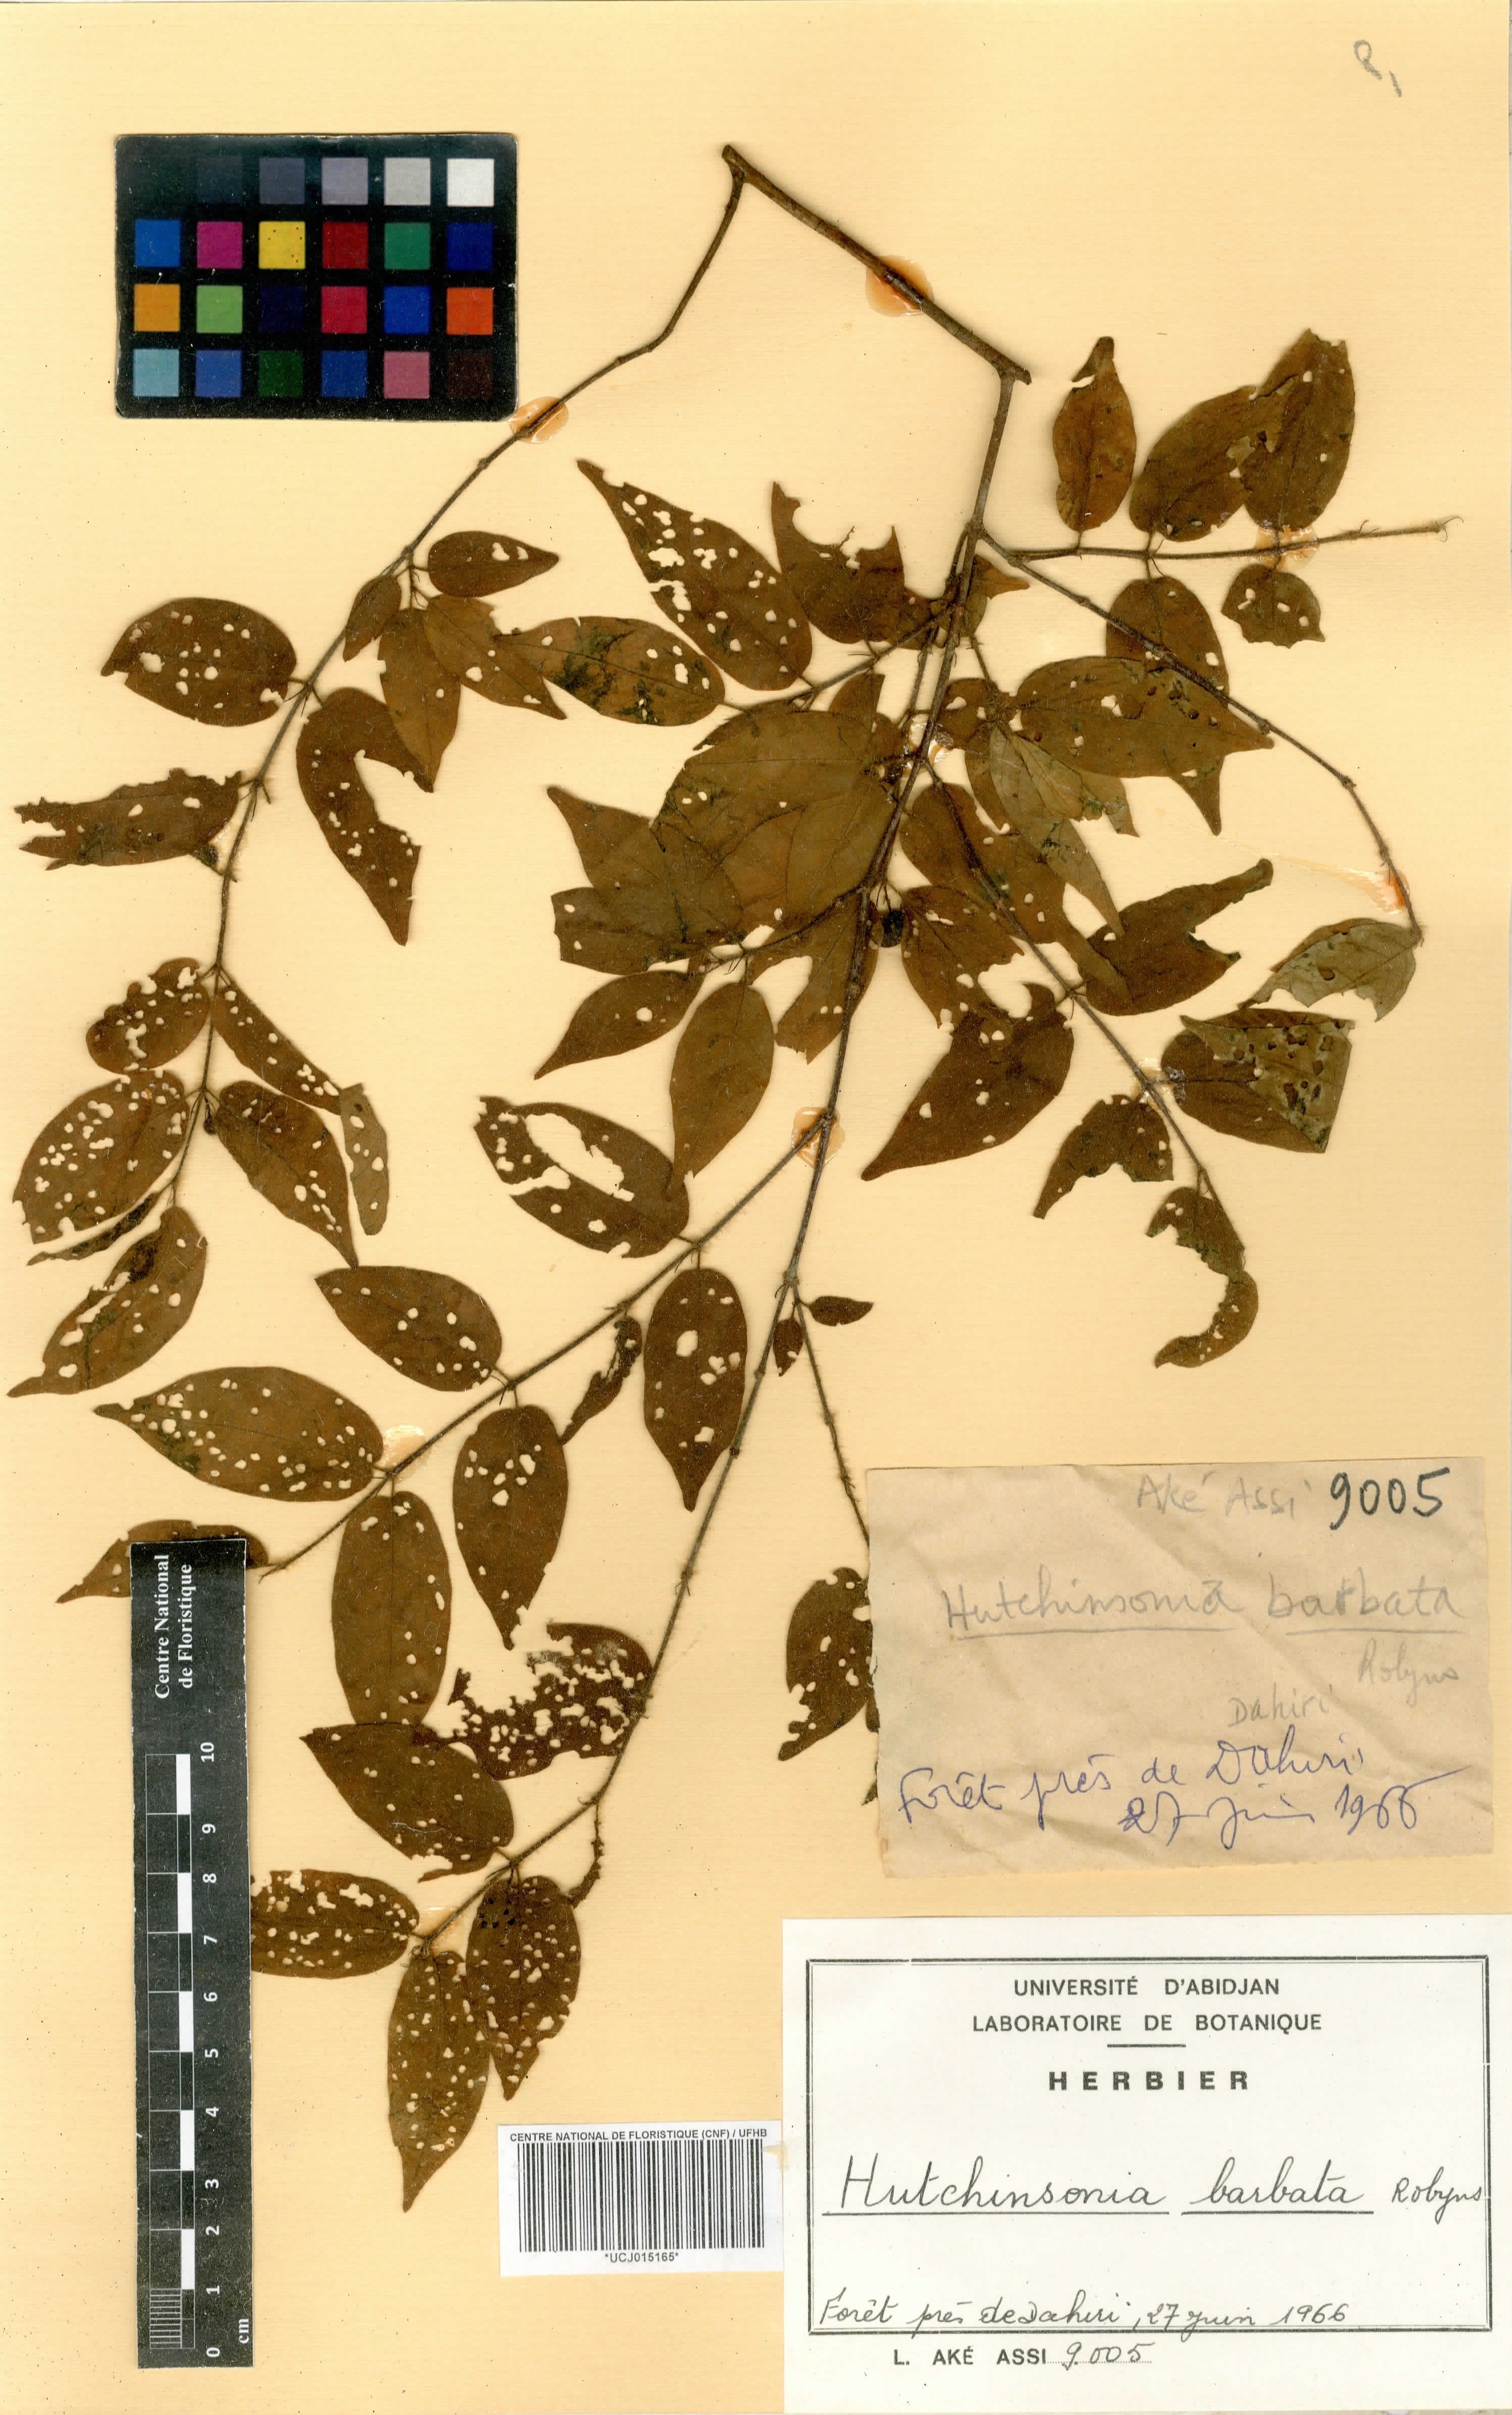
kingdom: Plantae
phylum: Tracheophyta
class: Magnoliopsida
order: Gentianales
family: Rubiaceae
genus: Hutchinsonia
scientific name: Hutchinsonia barbata
